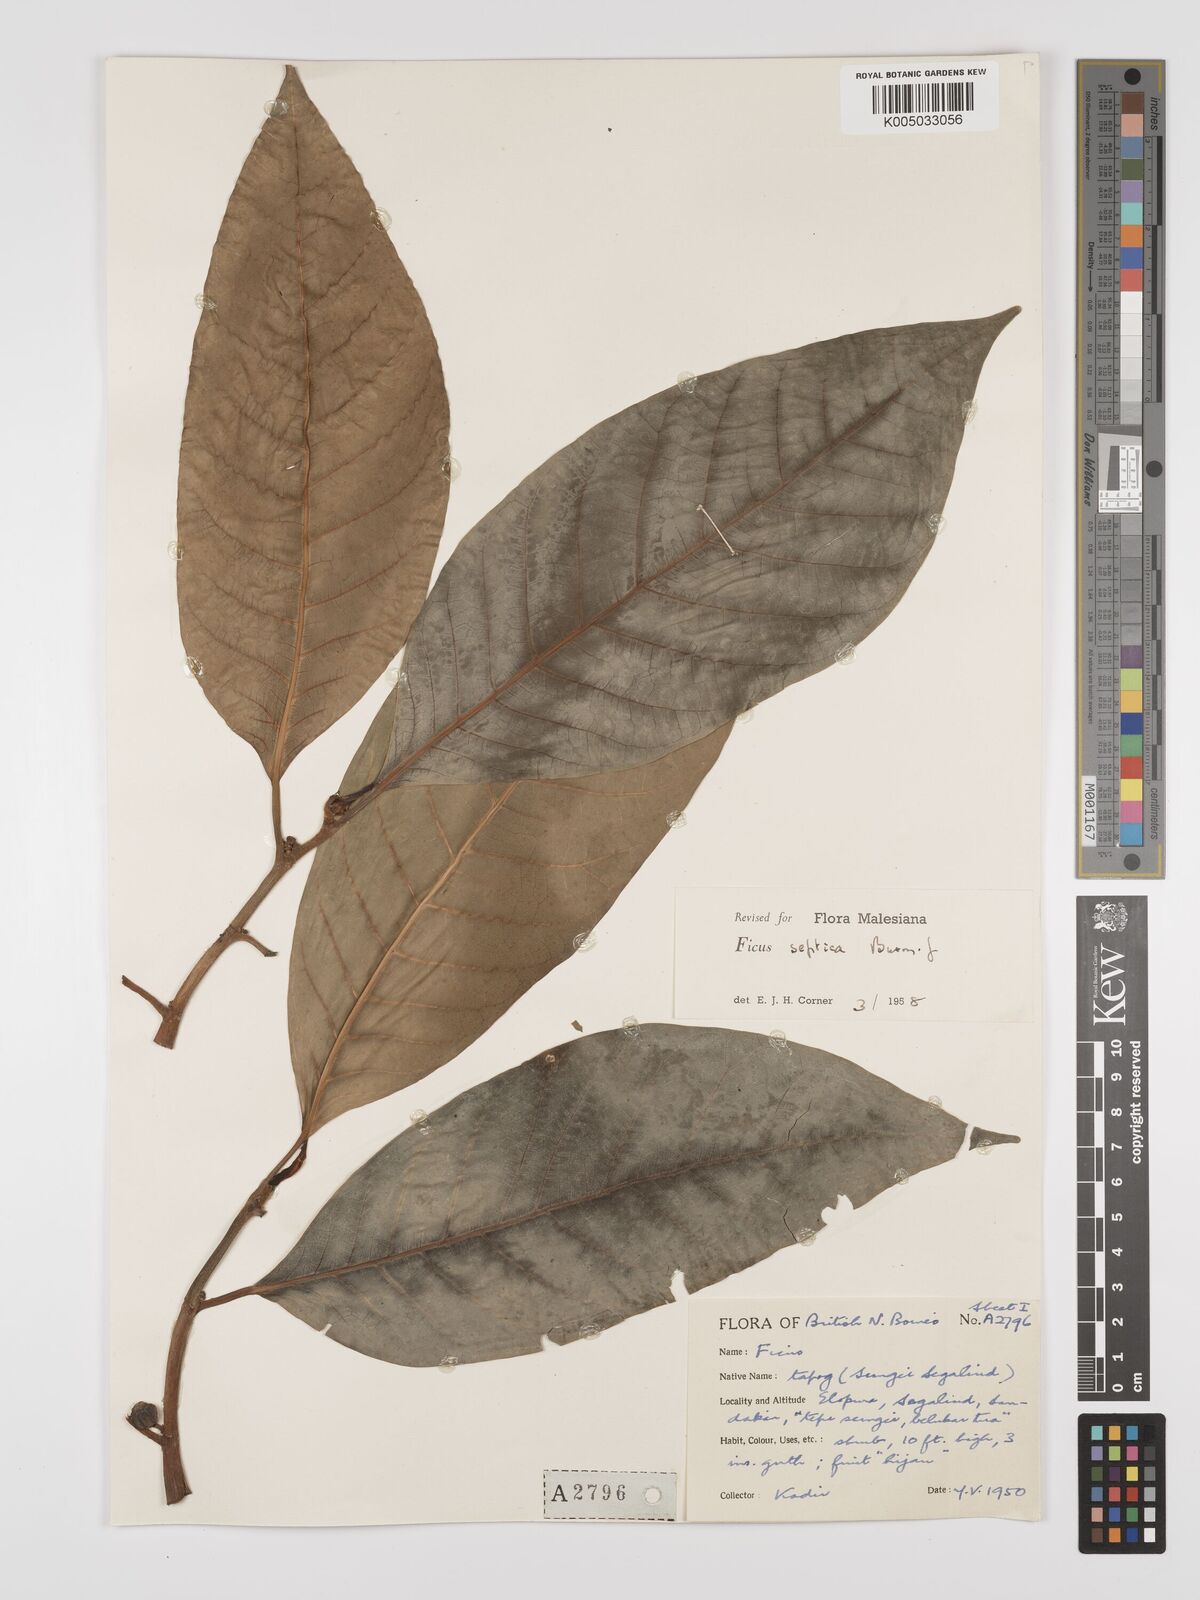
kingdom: Plantae
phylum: Tracheophyta
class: Magnoliopsida
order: Rosales
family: Moraceae
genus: Ficus
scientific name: Ficus septica
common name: Septic fig
